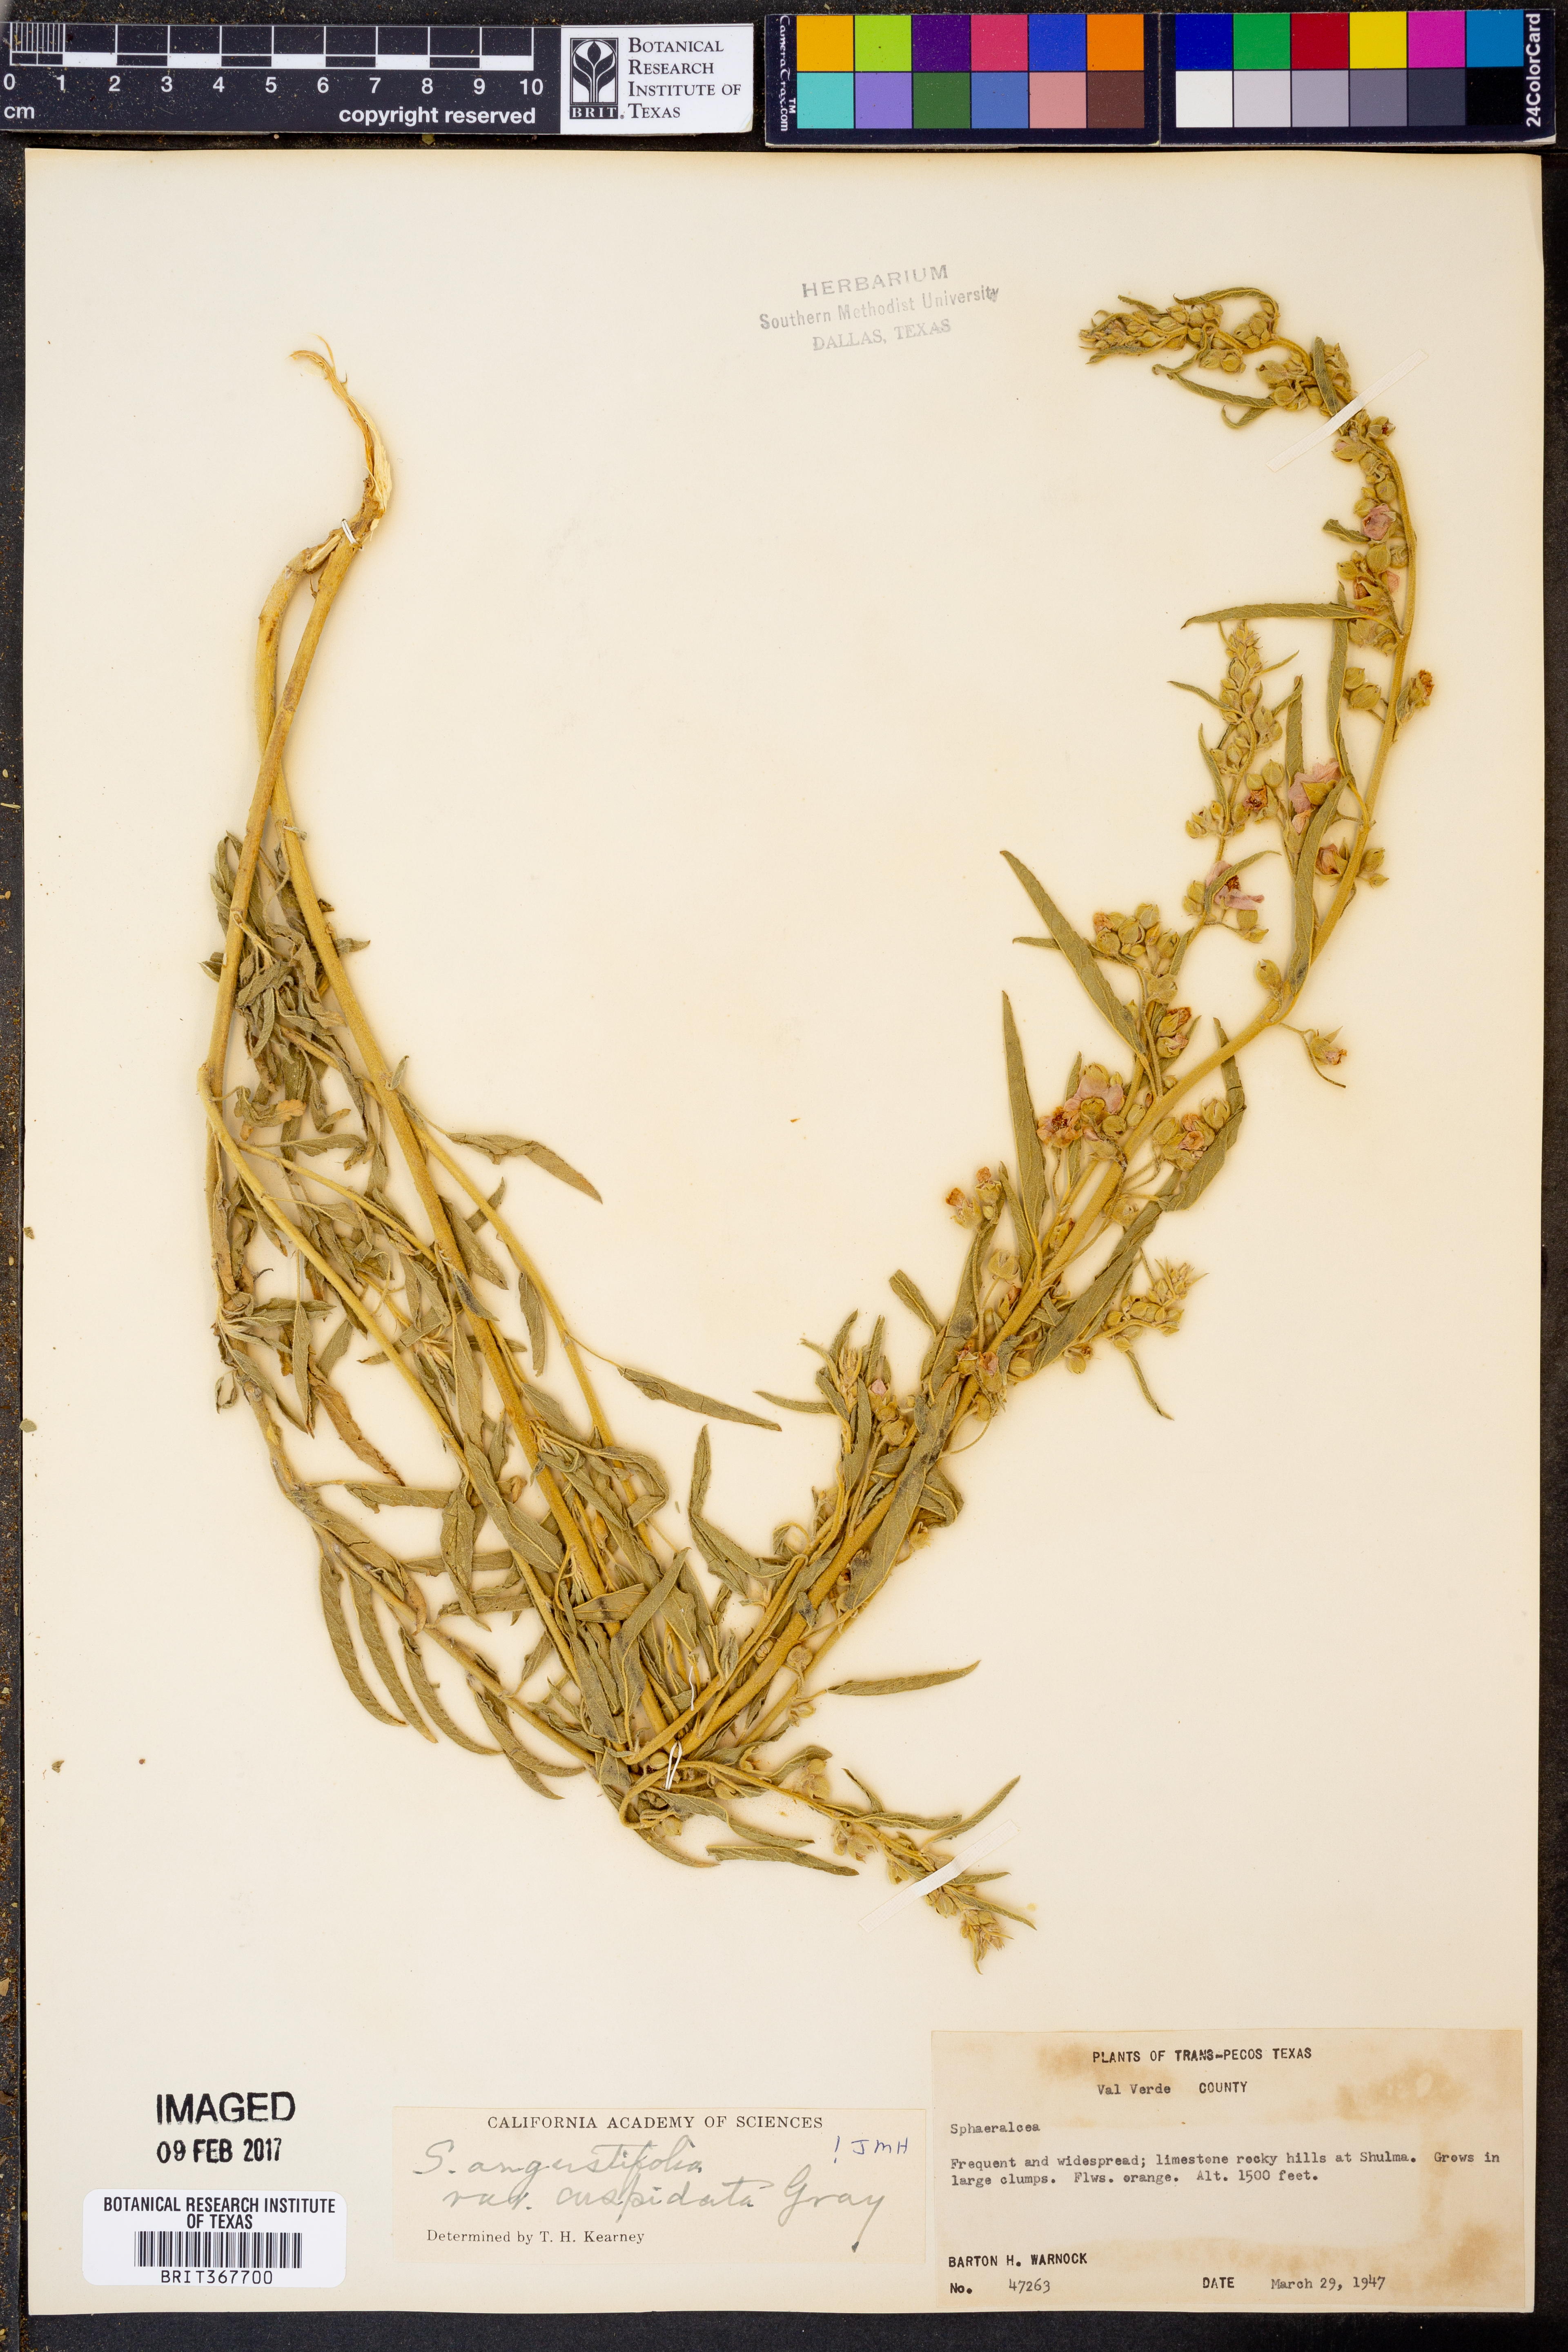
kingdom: Plantae
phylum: Tracheophyta
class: Magnoliopsida
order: Malvales
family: Malvaceae
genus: Sphaeralcea
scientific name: Sphaeralcea angustifolia
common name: Copper globe-mallow
